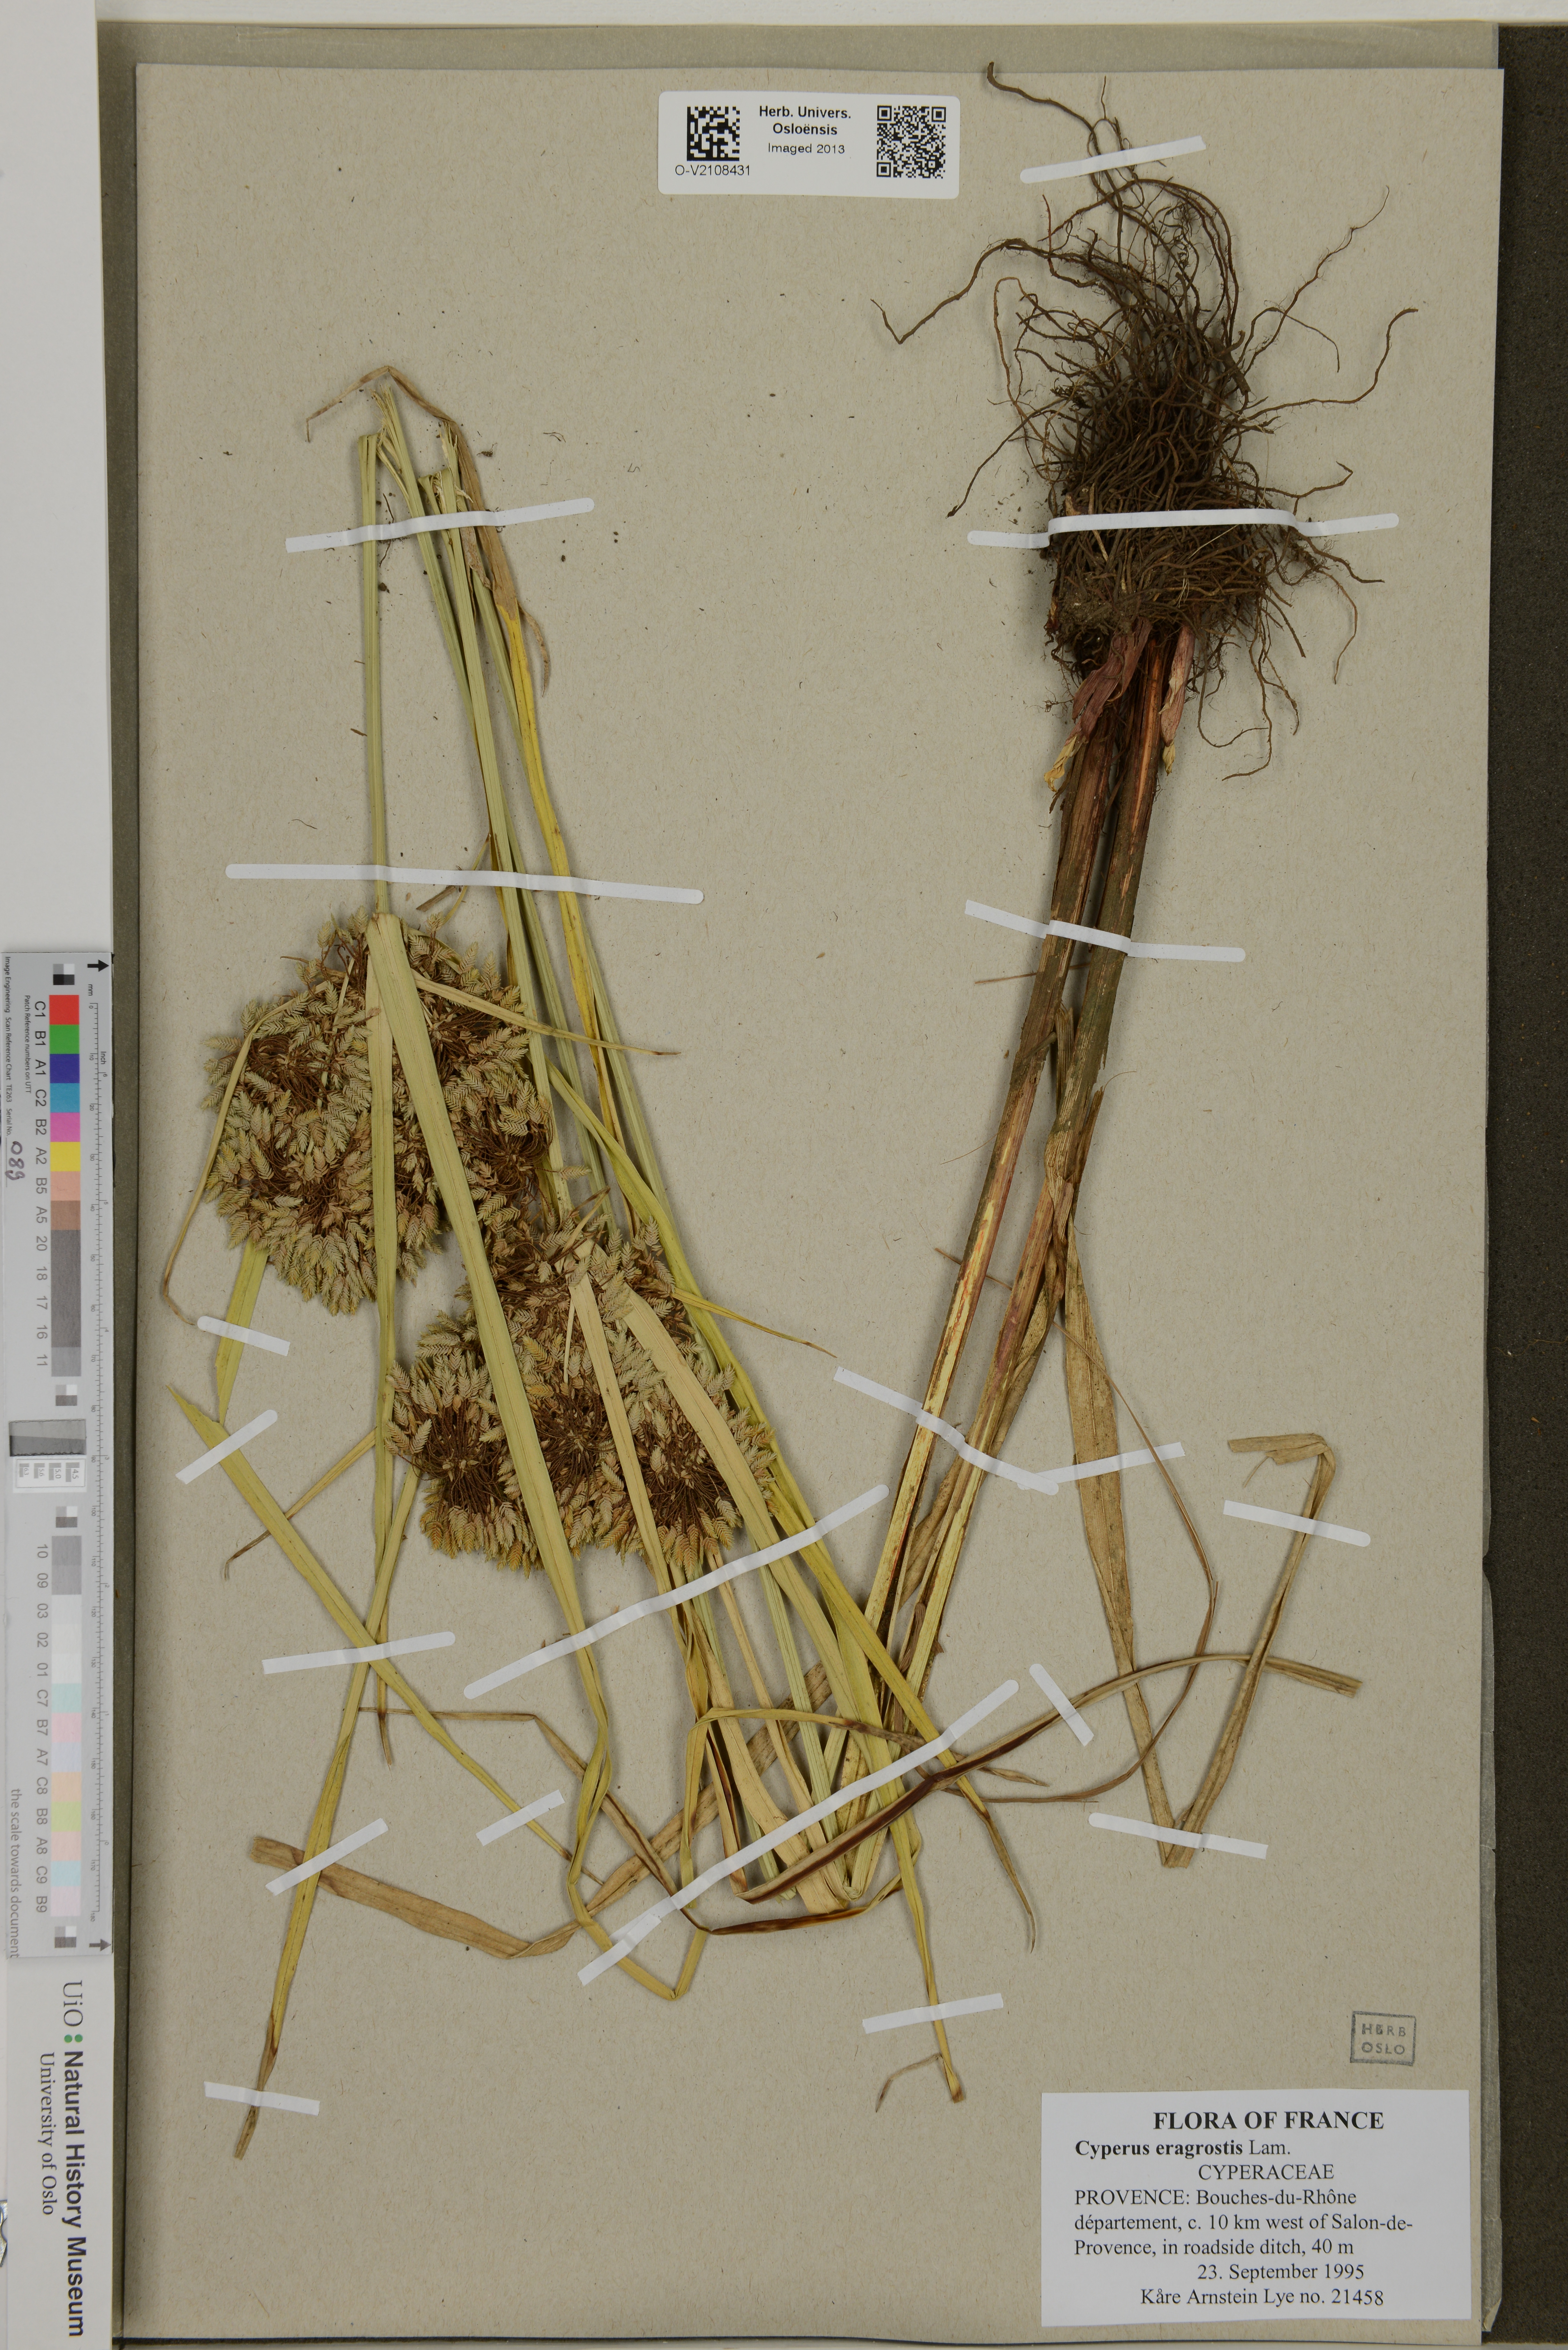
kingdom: Plantae
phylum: Tracheophyta
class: Liliopsida
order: Poales
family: Cyperaceae
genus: Cyperus
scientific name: Cyperus eragrostis
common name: Tall flatsedge
